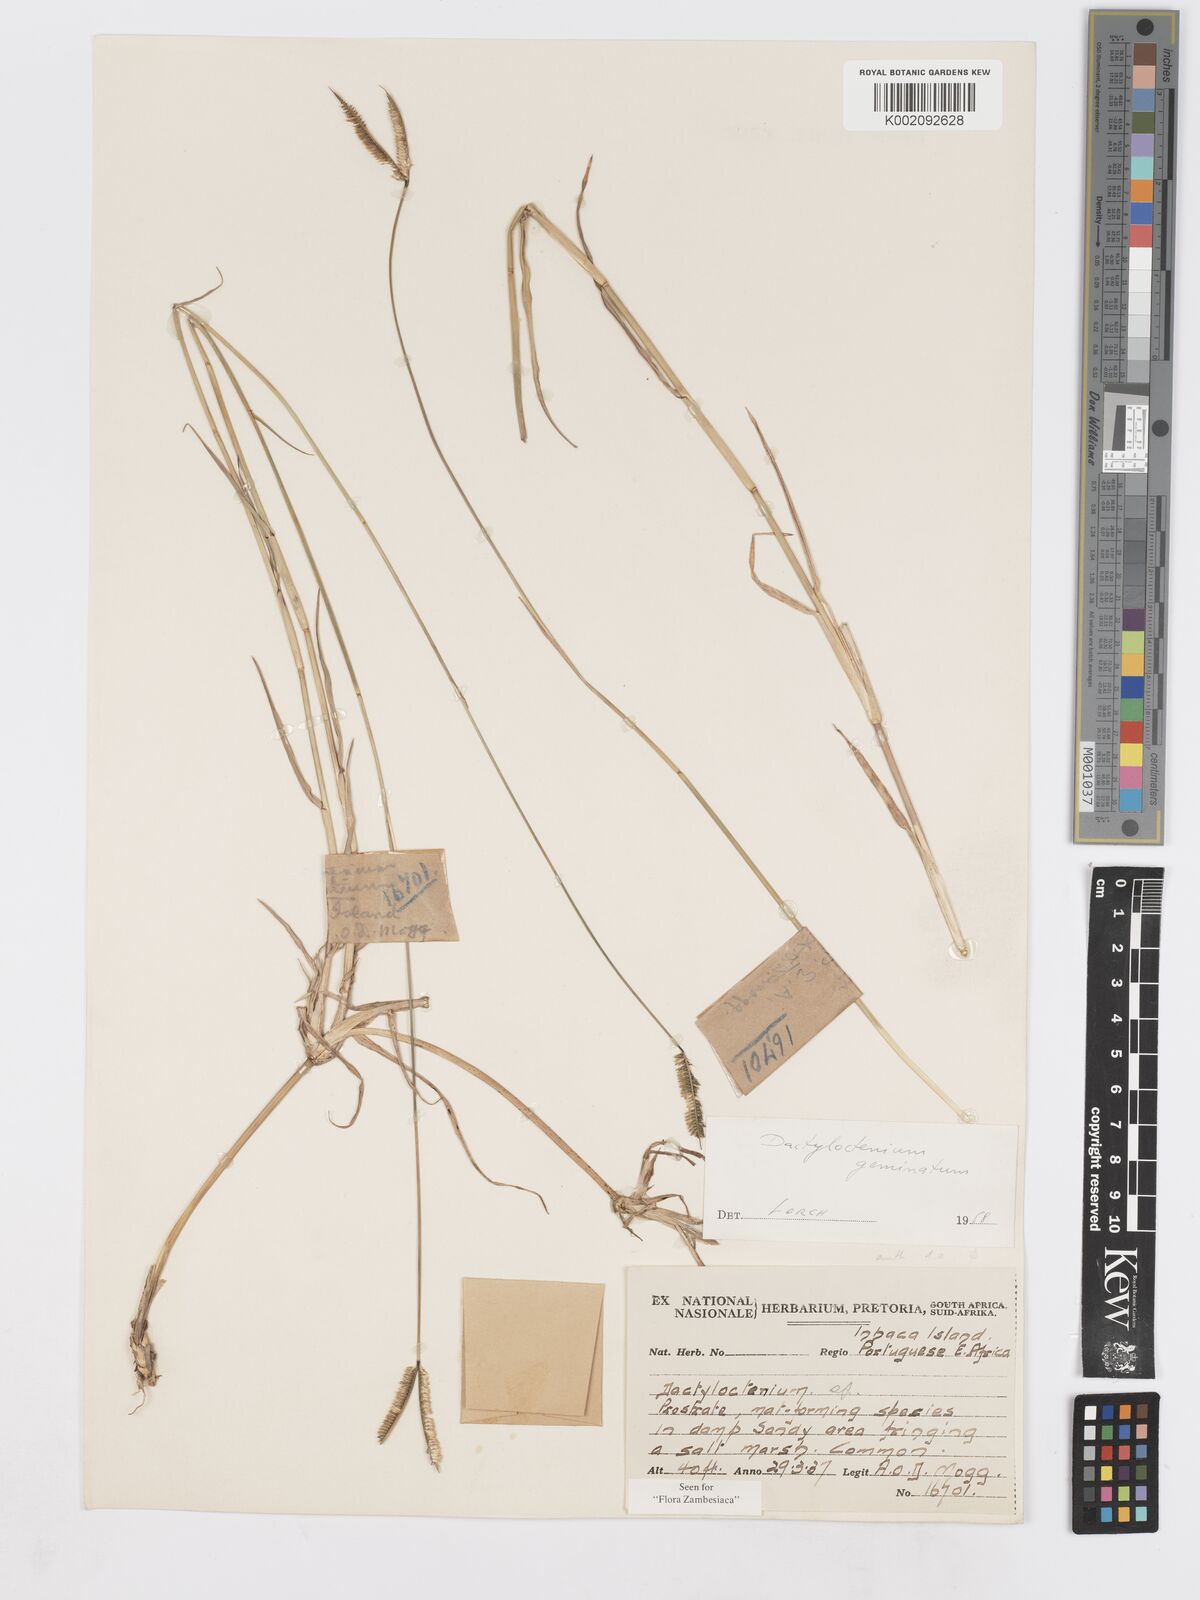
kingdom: Plantae
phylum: Tracheophyta
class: Liliopsida
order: Poales
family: Poaceae
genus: Dactyloctenium
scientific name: Dactyloctenium geminatum
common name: Crowsfoot grass
